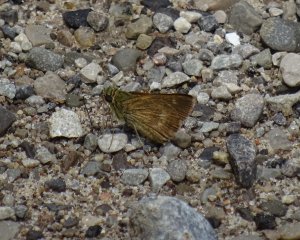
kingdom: Animalia
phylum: Arthropoda
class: Insecta
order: Lepidoptera
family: Hesperiidae
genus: Polites
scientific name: Polites
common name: Crossline Skipper
